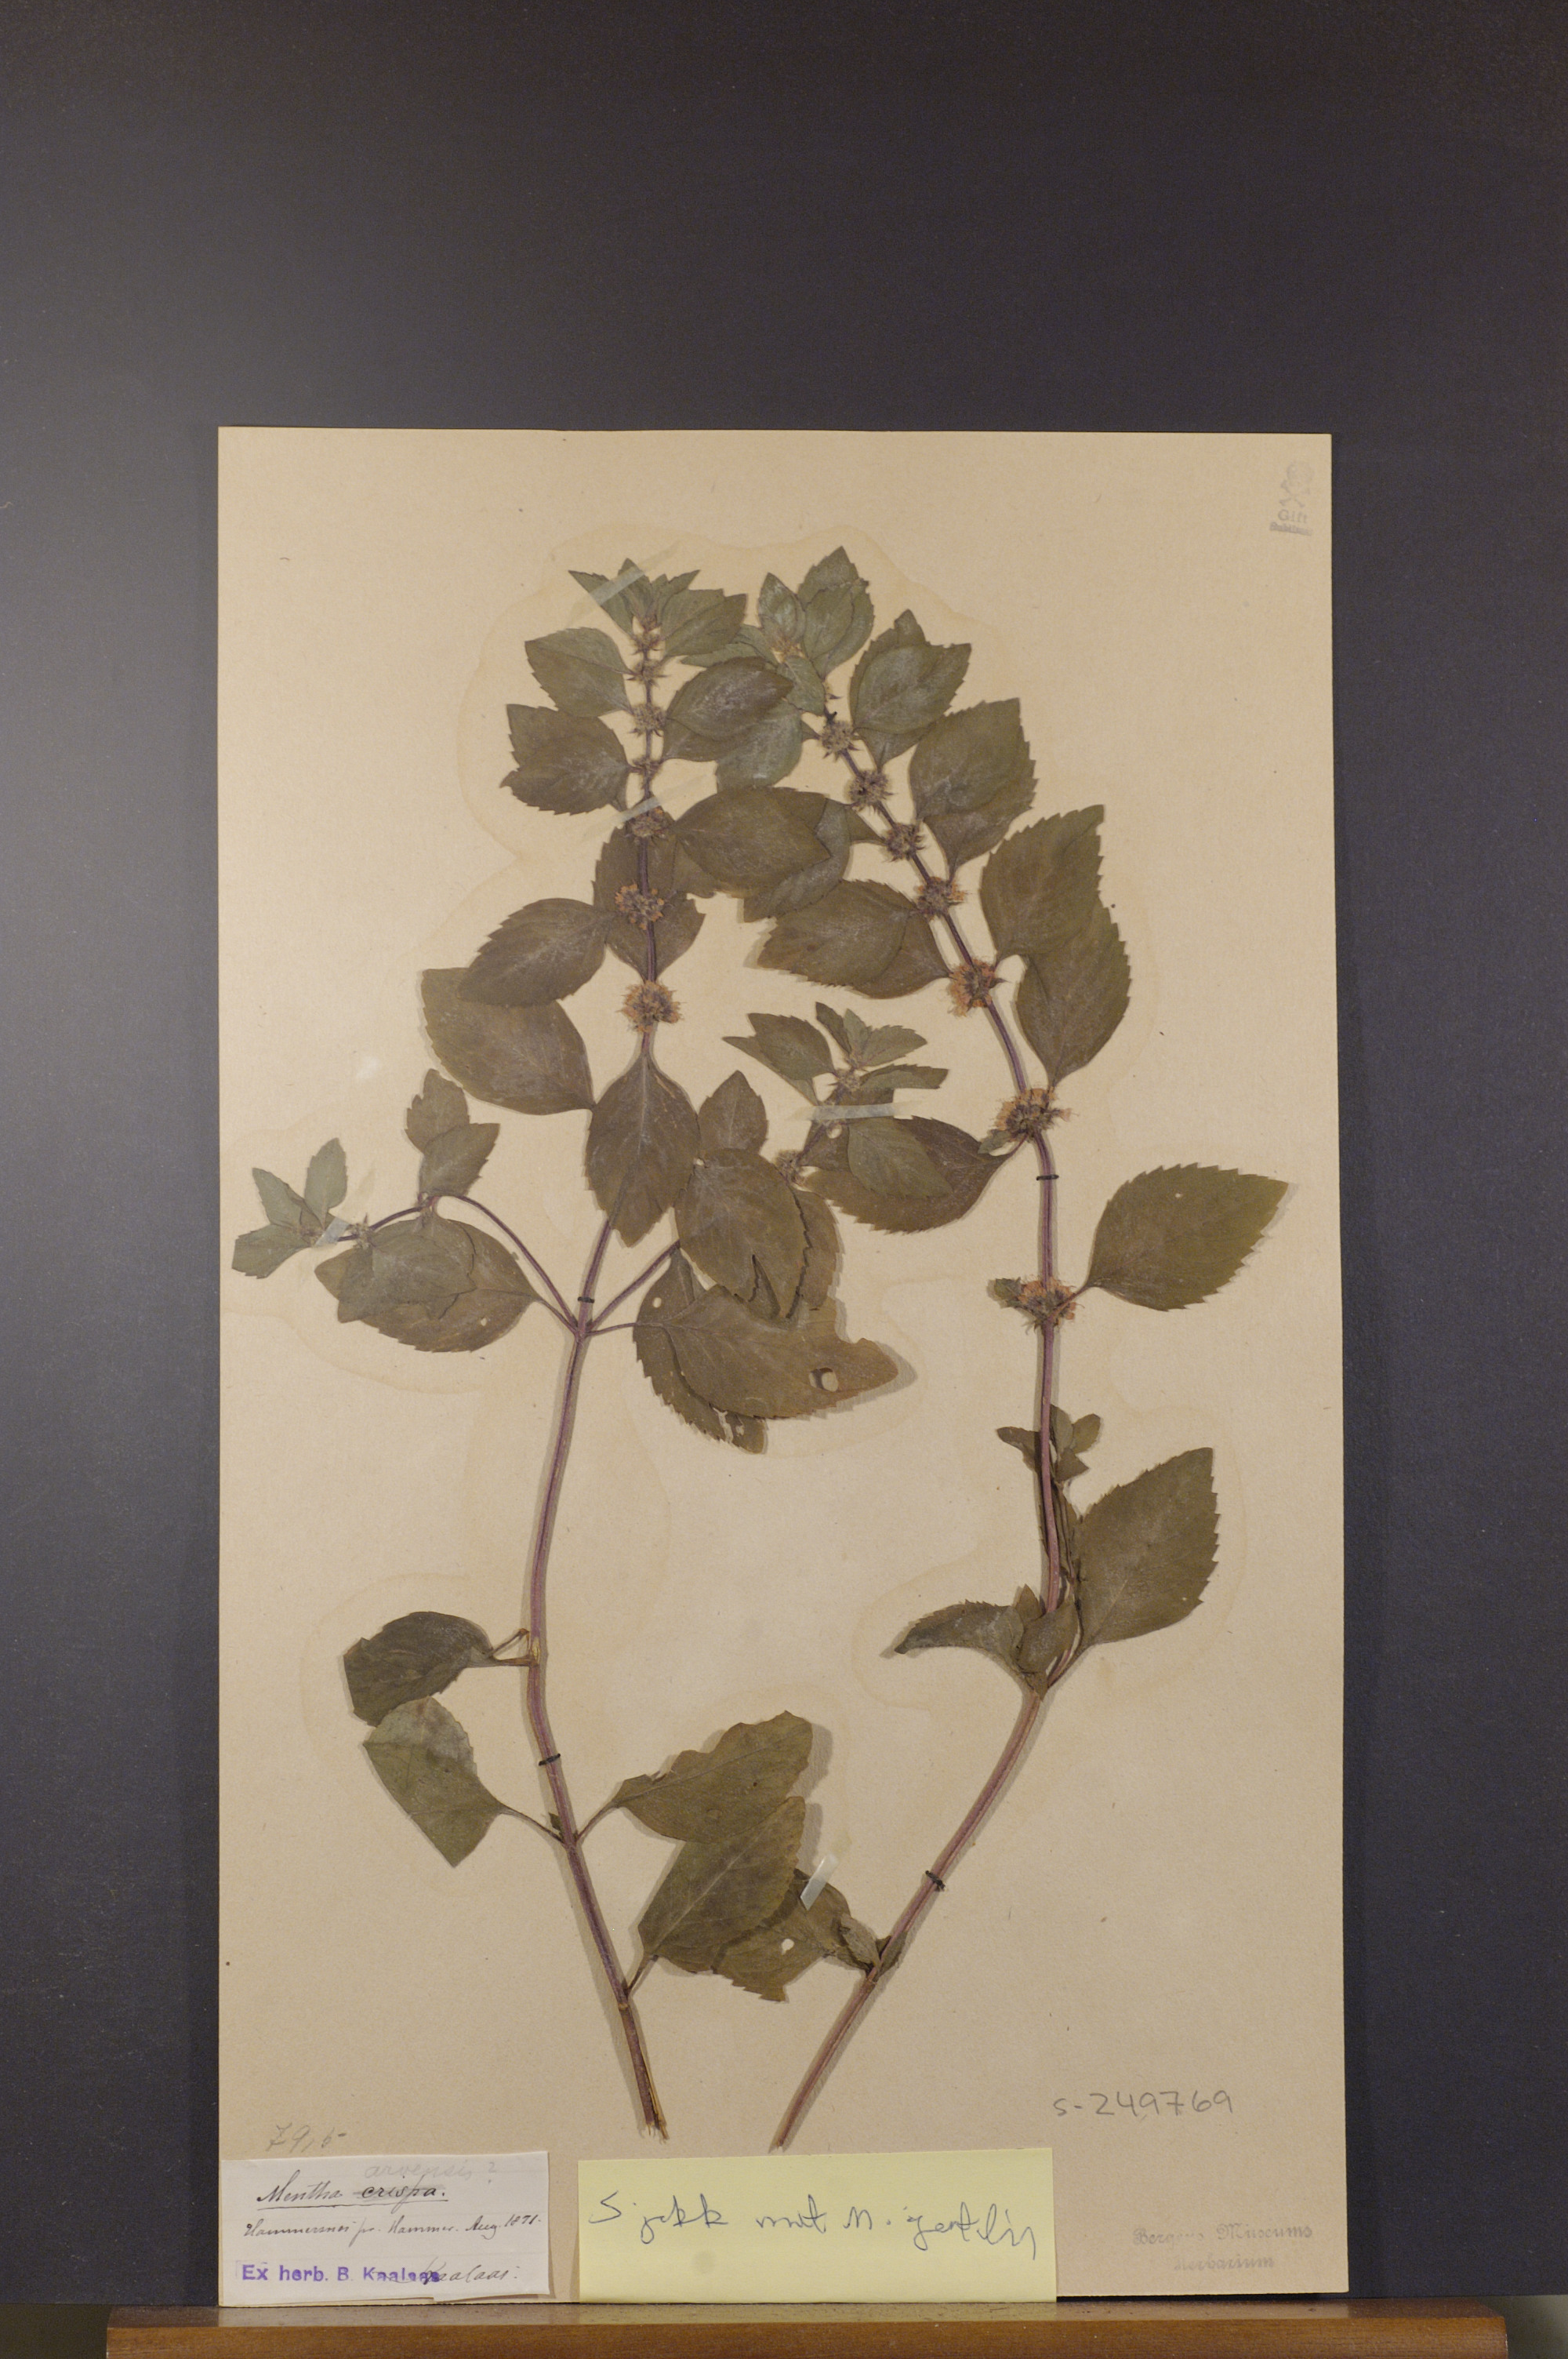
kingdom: Plantae
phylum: Tracheophyta
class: Magnoliopsida
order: Lamiales
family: Lamiaceae
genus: Mentha
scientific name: Mentha arvensis
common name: Corn mint
